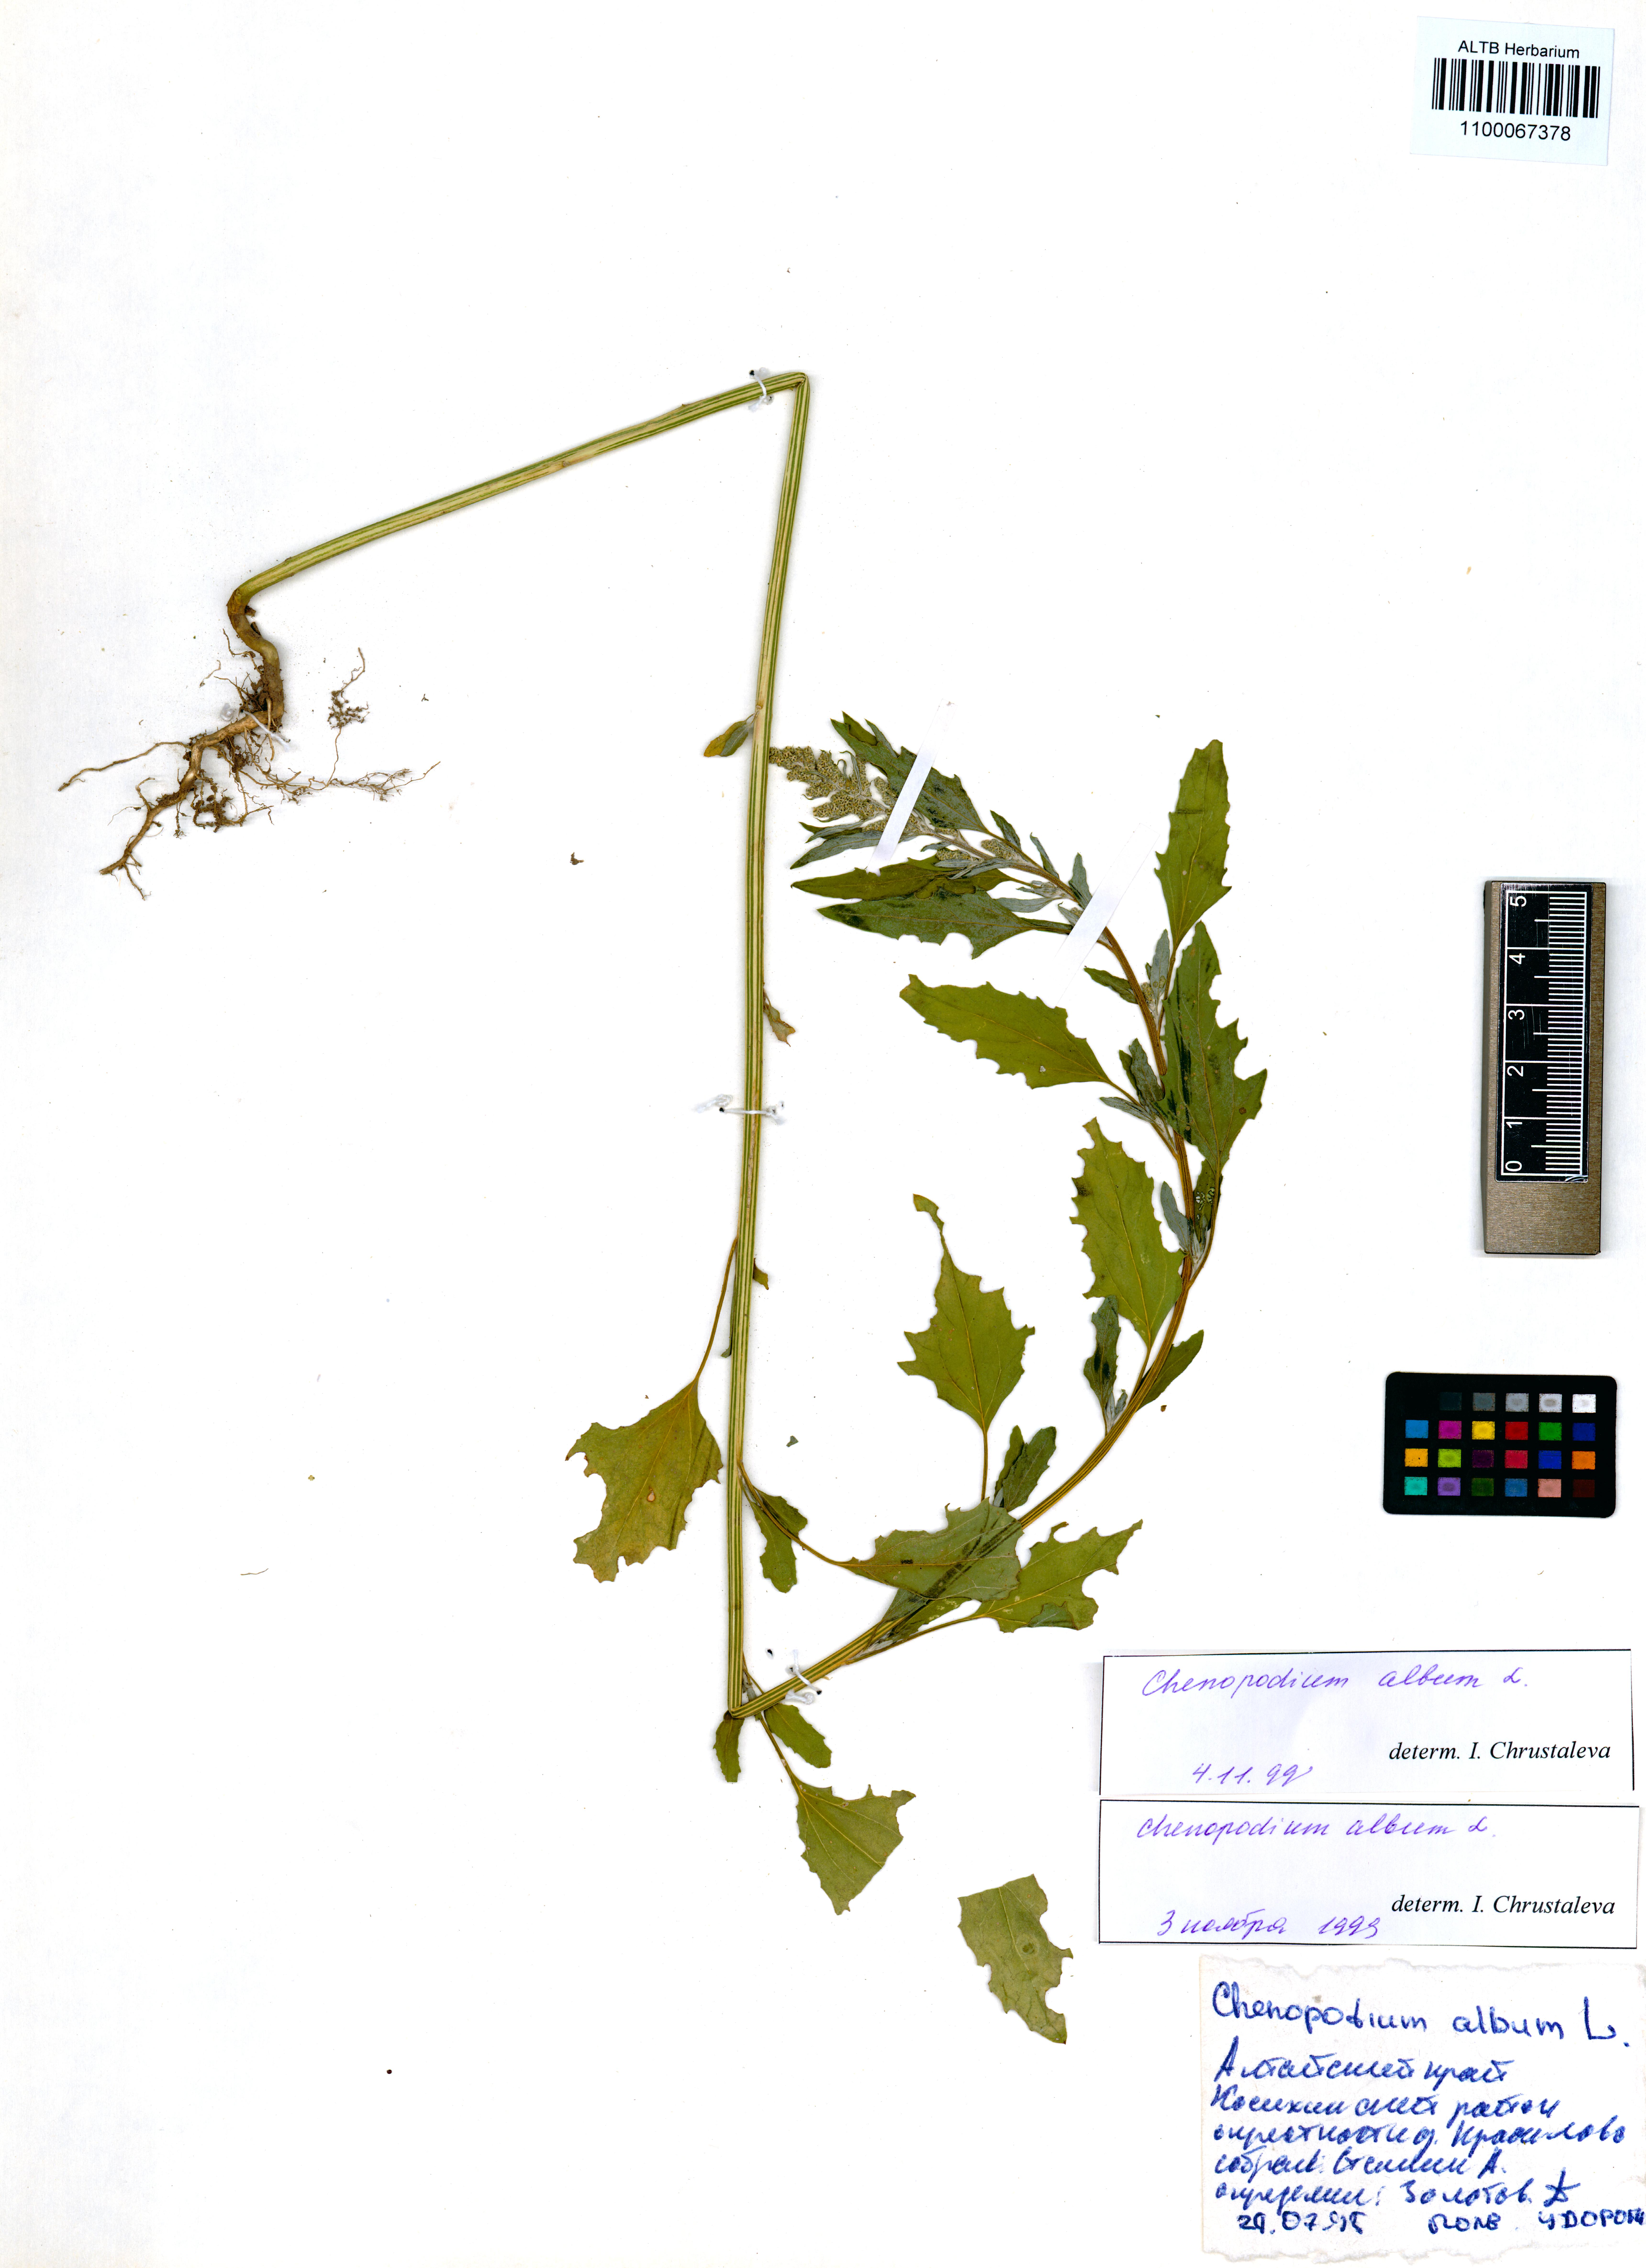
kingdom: Plantae
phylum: Tracheophyta
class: Magnoliopsida
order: Caryophyllales
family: Amaranthaceae
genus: Chenopodium
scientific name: Chenopodium album
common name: Fat-hen
